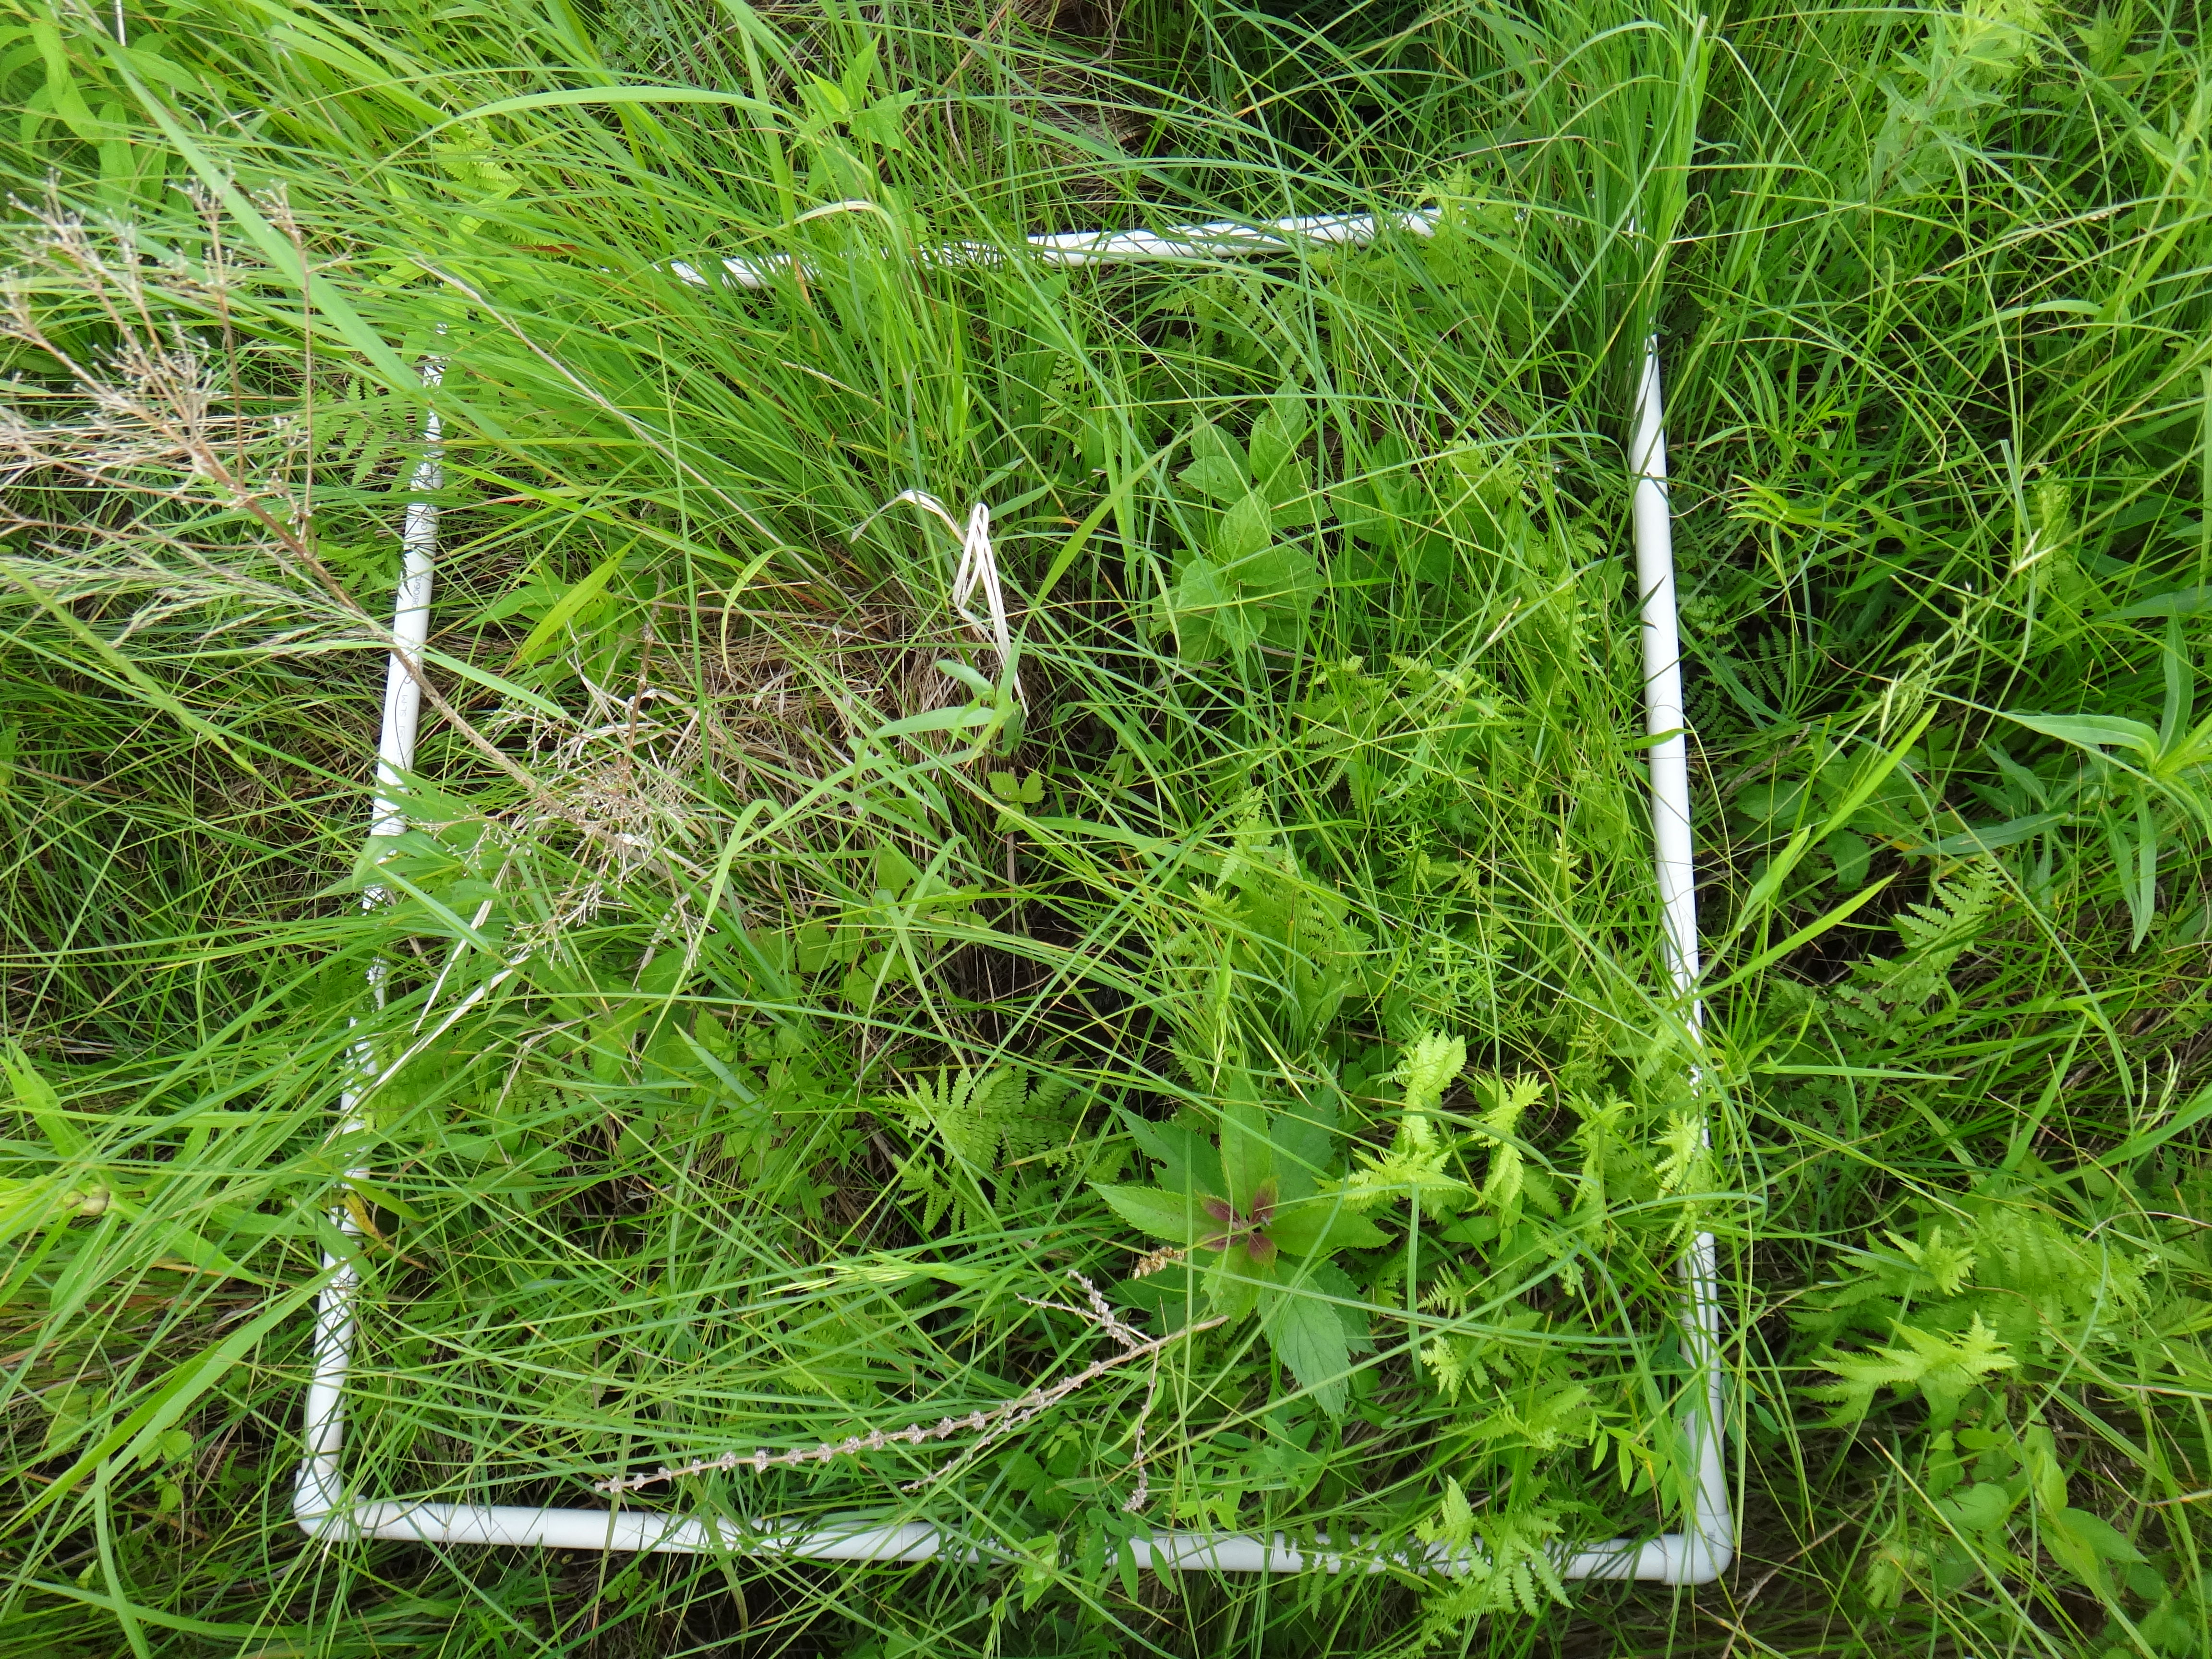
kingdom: Plantae
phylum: Tracheophyta
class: Magnoliopsida
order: Lamiales
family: Lamiaceae
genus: Lycopus
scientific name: Lycopus americanus
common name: American bugleweed
